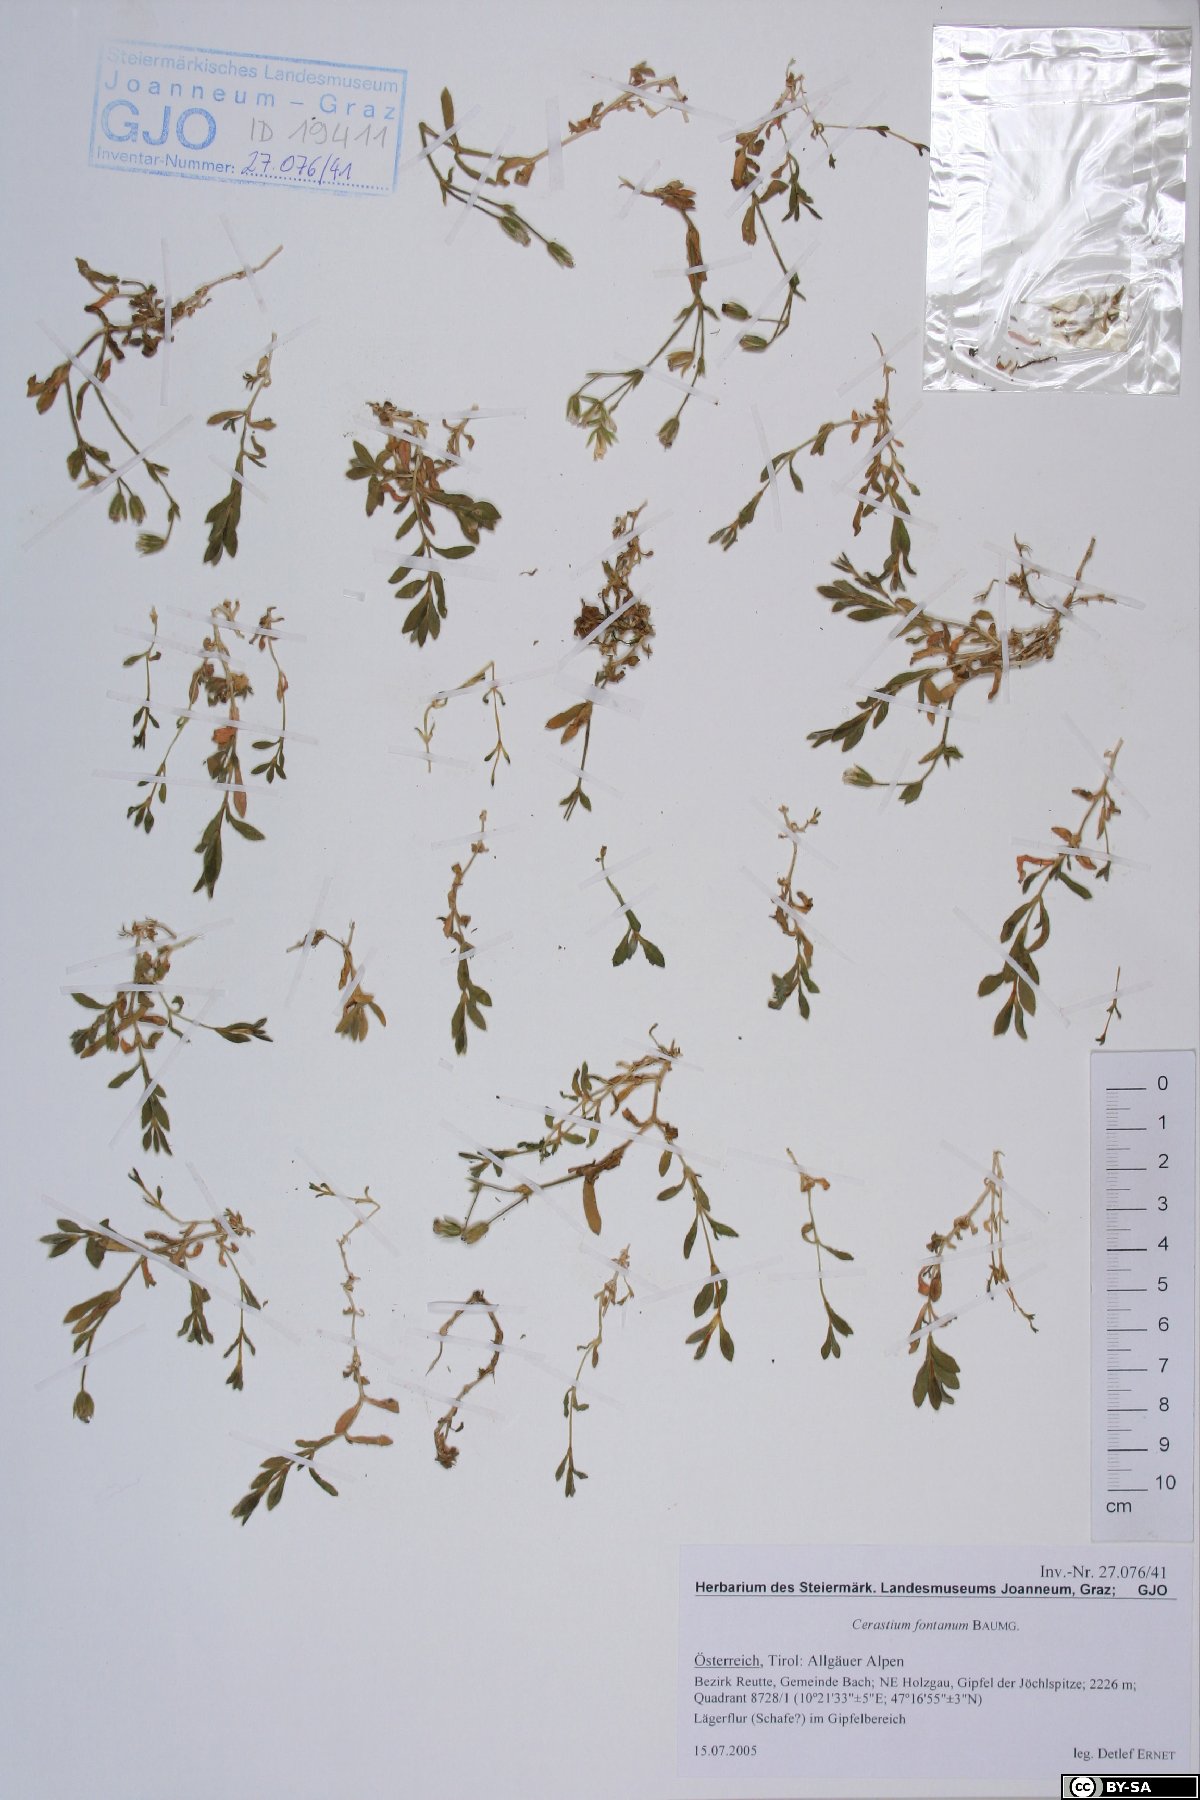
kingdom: Plantae
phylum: Tracheophyta
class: Magnoliopsida
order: Caryophyllales
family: Caryophyllaceae
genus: Cerastium
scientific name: Cerastium fontanum
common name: Common mouse-ear
